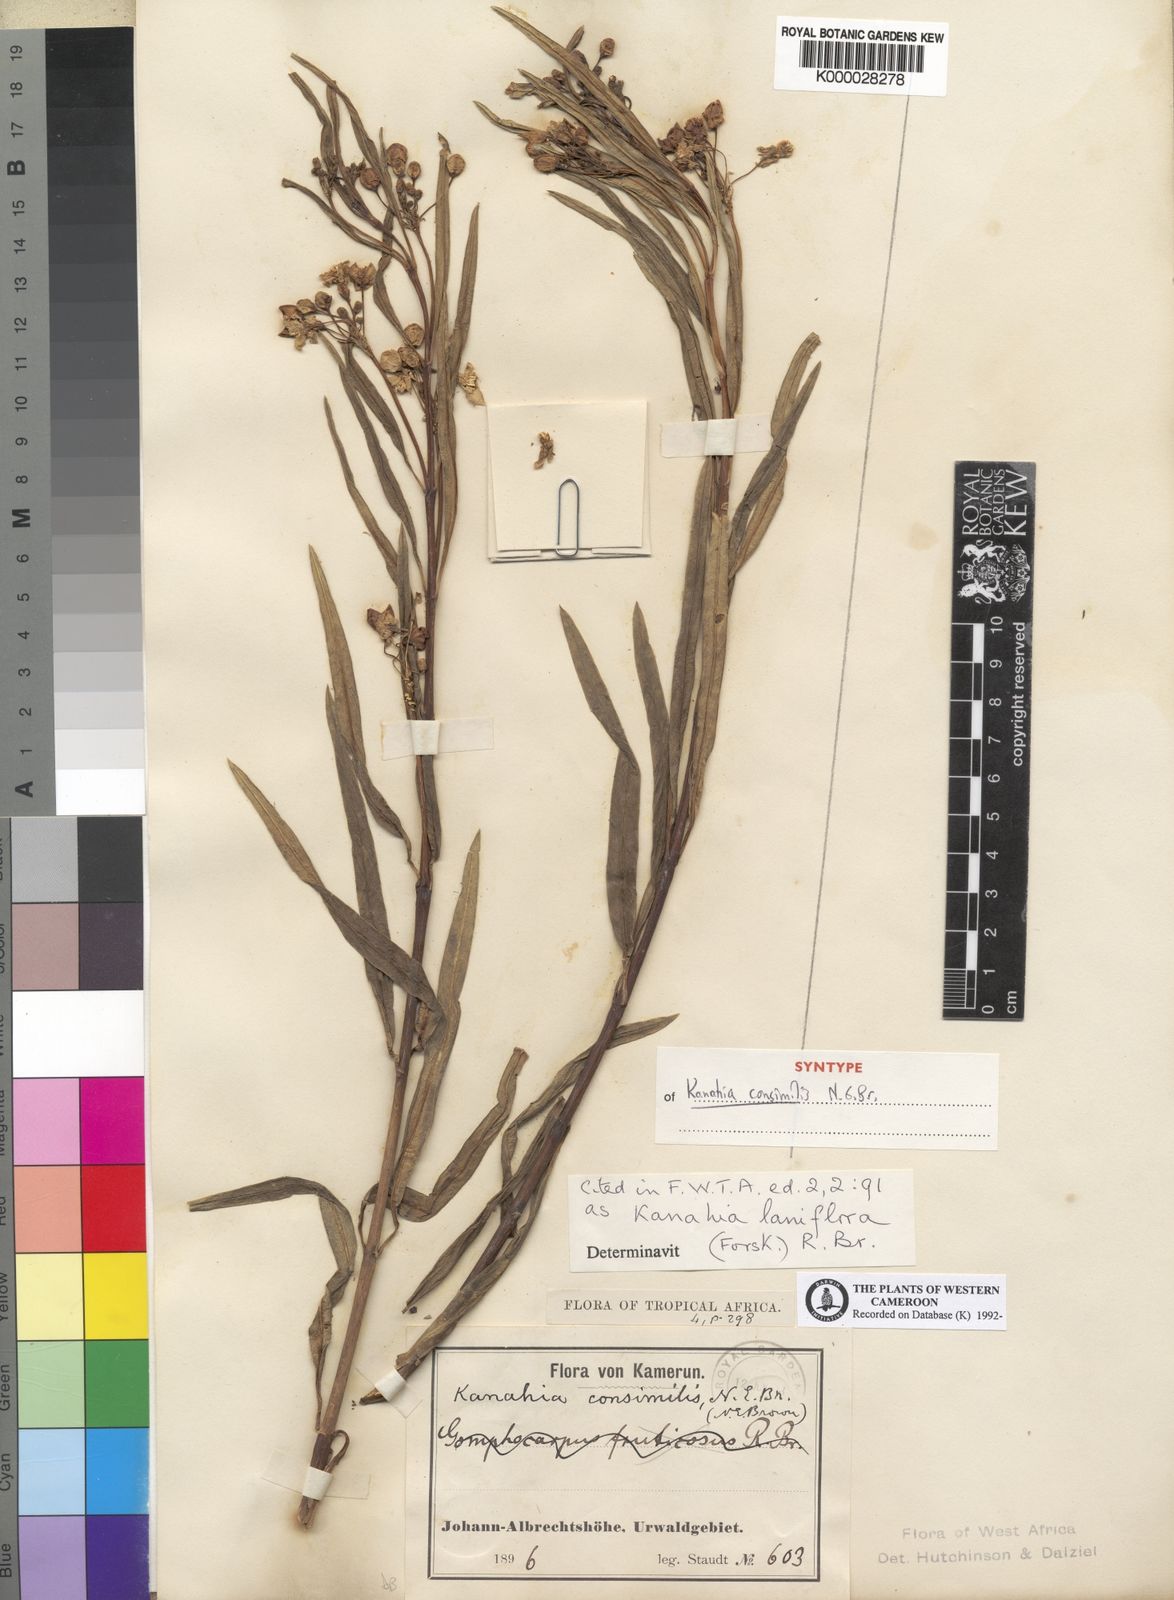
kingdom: Plantae
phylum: Tracheophyta
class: Magnoliopsida
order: Gentianales
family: Apocynaceae
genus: Kanahia
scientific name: Kanahia laniflora
